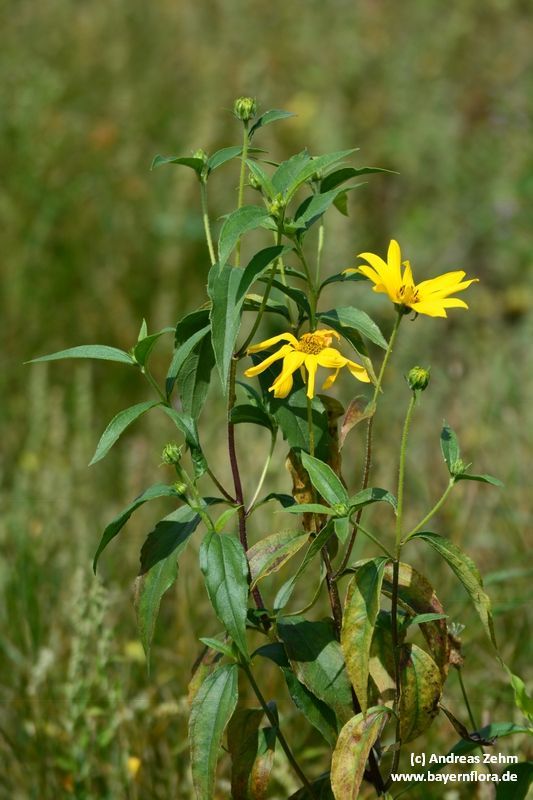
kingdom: Plantae
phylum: Tracheophyta
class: Magnoliopsida
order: Asterales
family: Asteraceae
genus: Helianthus
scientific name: Helianthus tuberosus
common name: Jerusalem artichoke
